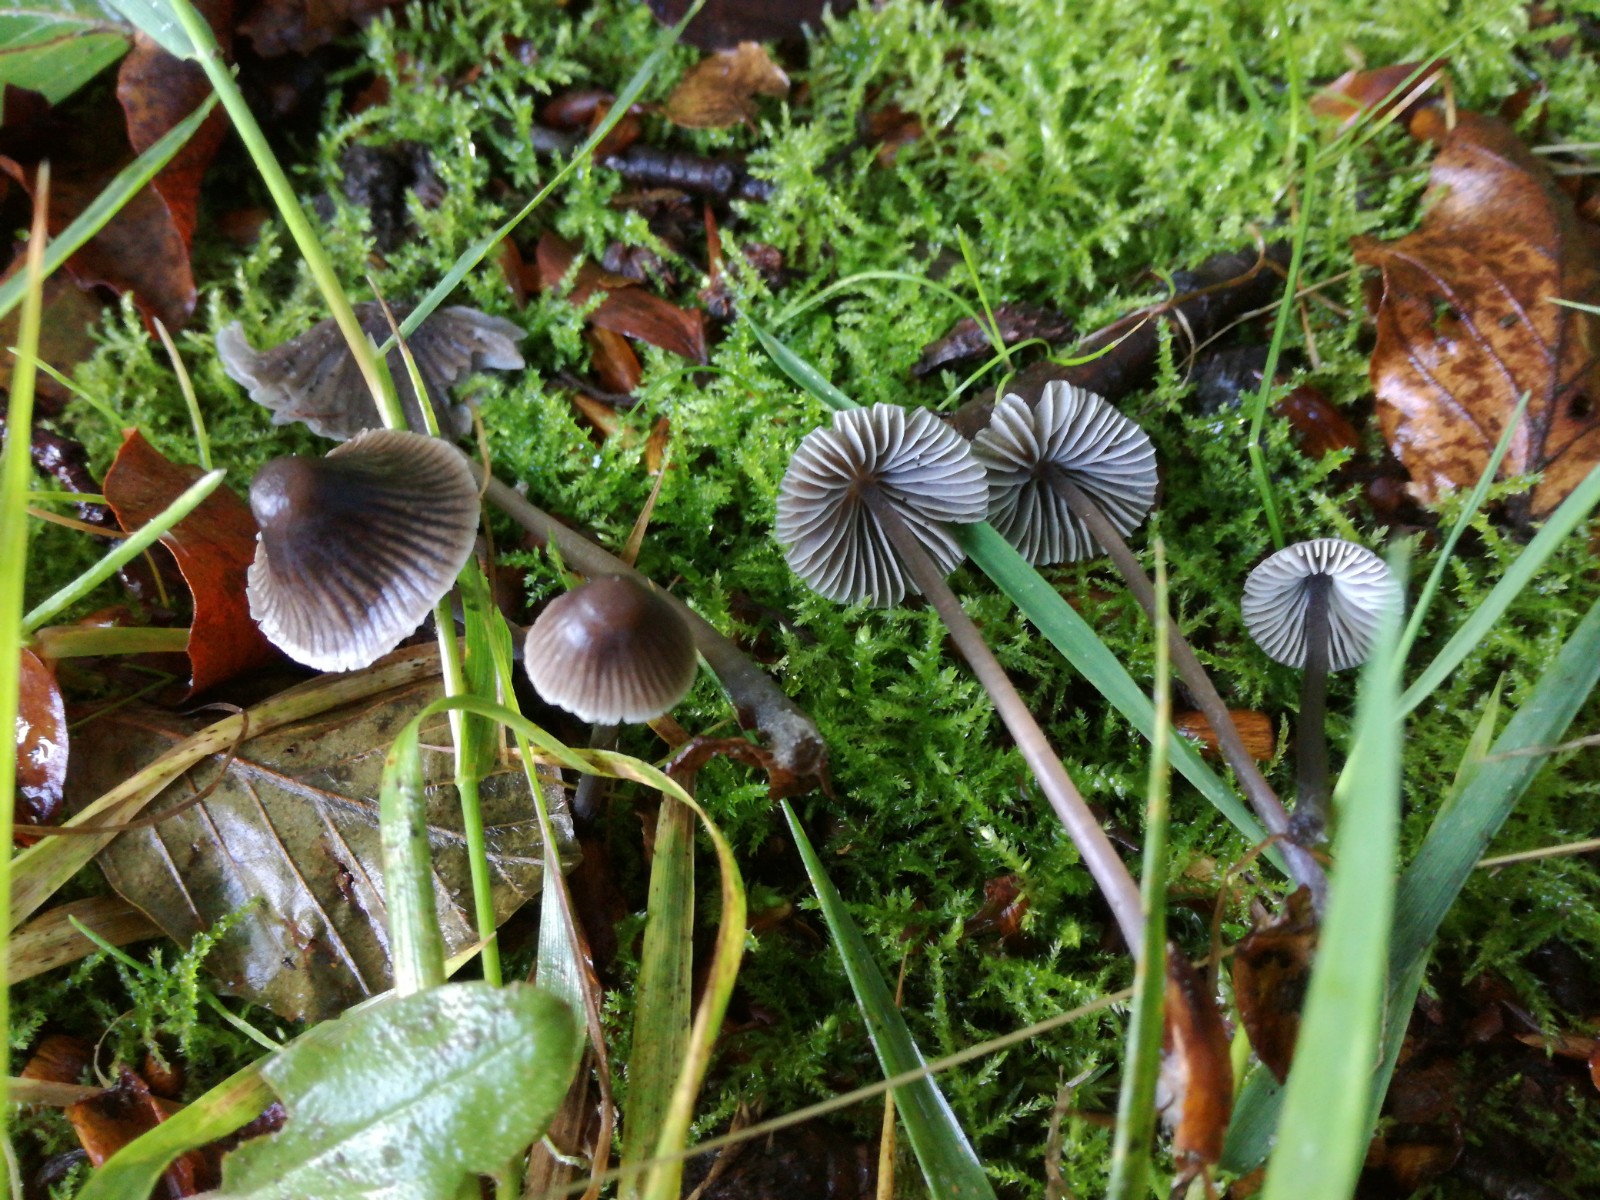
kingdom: Fungi
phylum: Basidiomycota
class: Agaricomycetes
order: Agaricales
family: Mycenaceae
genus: Mycena
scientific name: Mycena leptocephala
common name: klor-huesvamp
